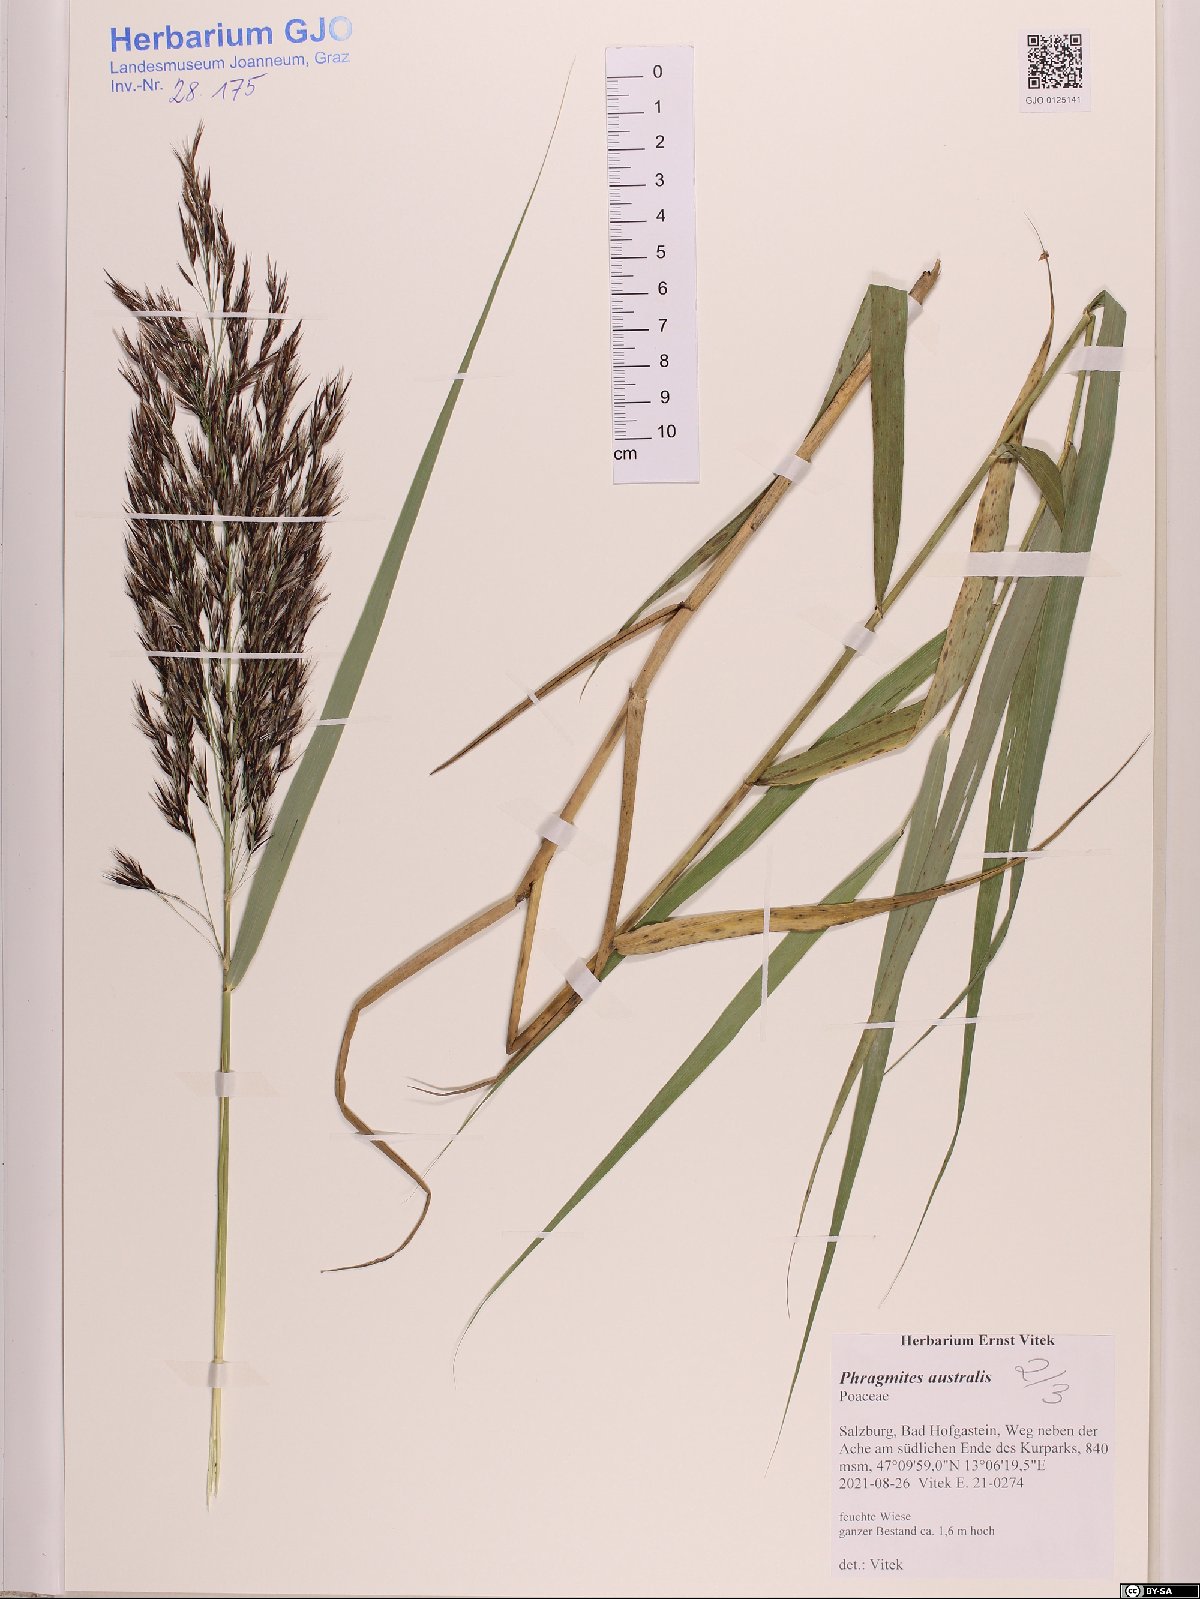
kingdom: Plantae
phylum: Tracheophyta
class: Liliopsida
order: Poales
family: Poaceae
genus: Phragmites
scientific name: Phragmites australis
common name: Common reed
